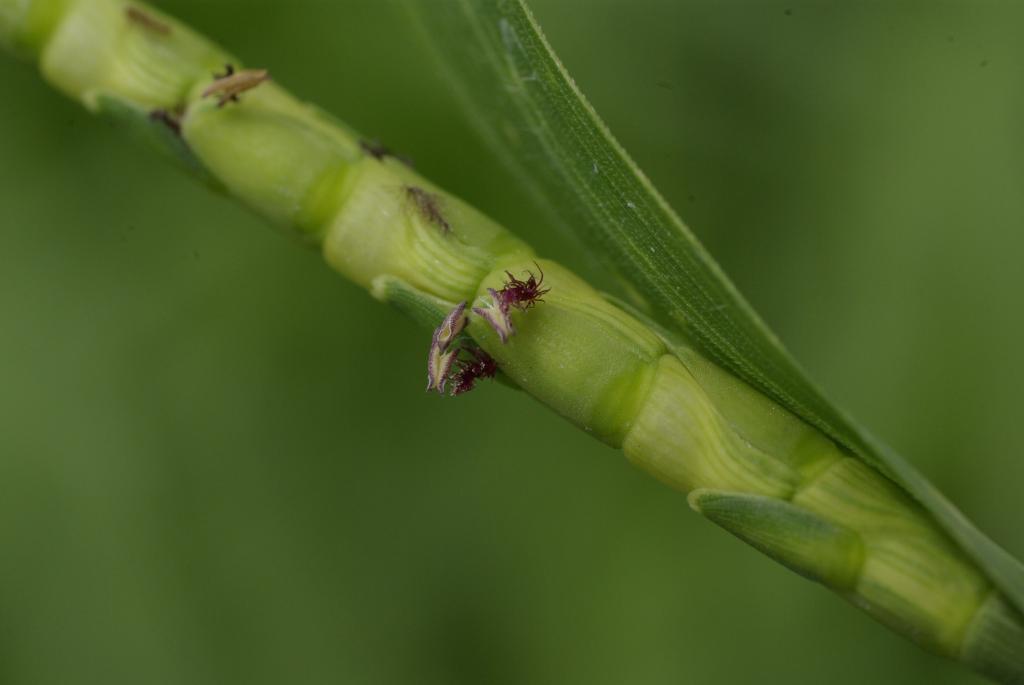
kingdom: Plantae
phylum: Tracheophyta
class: Liliopsida
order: Poales
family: Poaceae
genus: Rottboellia
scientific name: Rottboellia cochinchinensis
